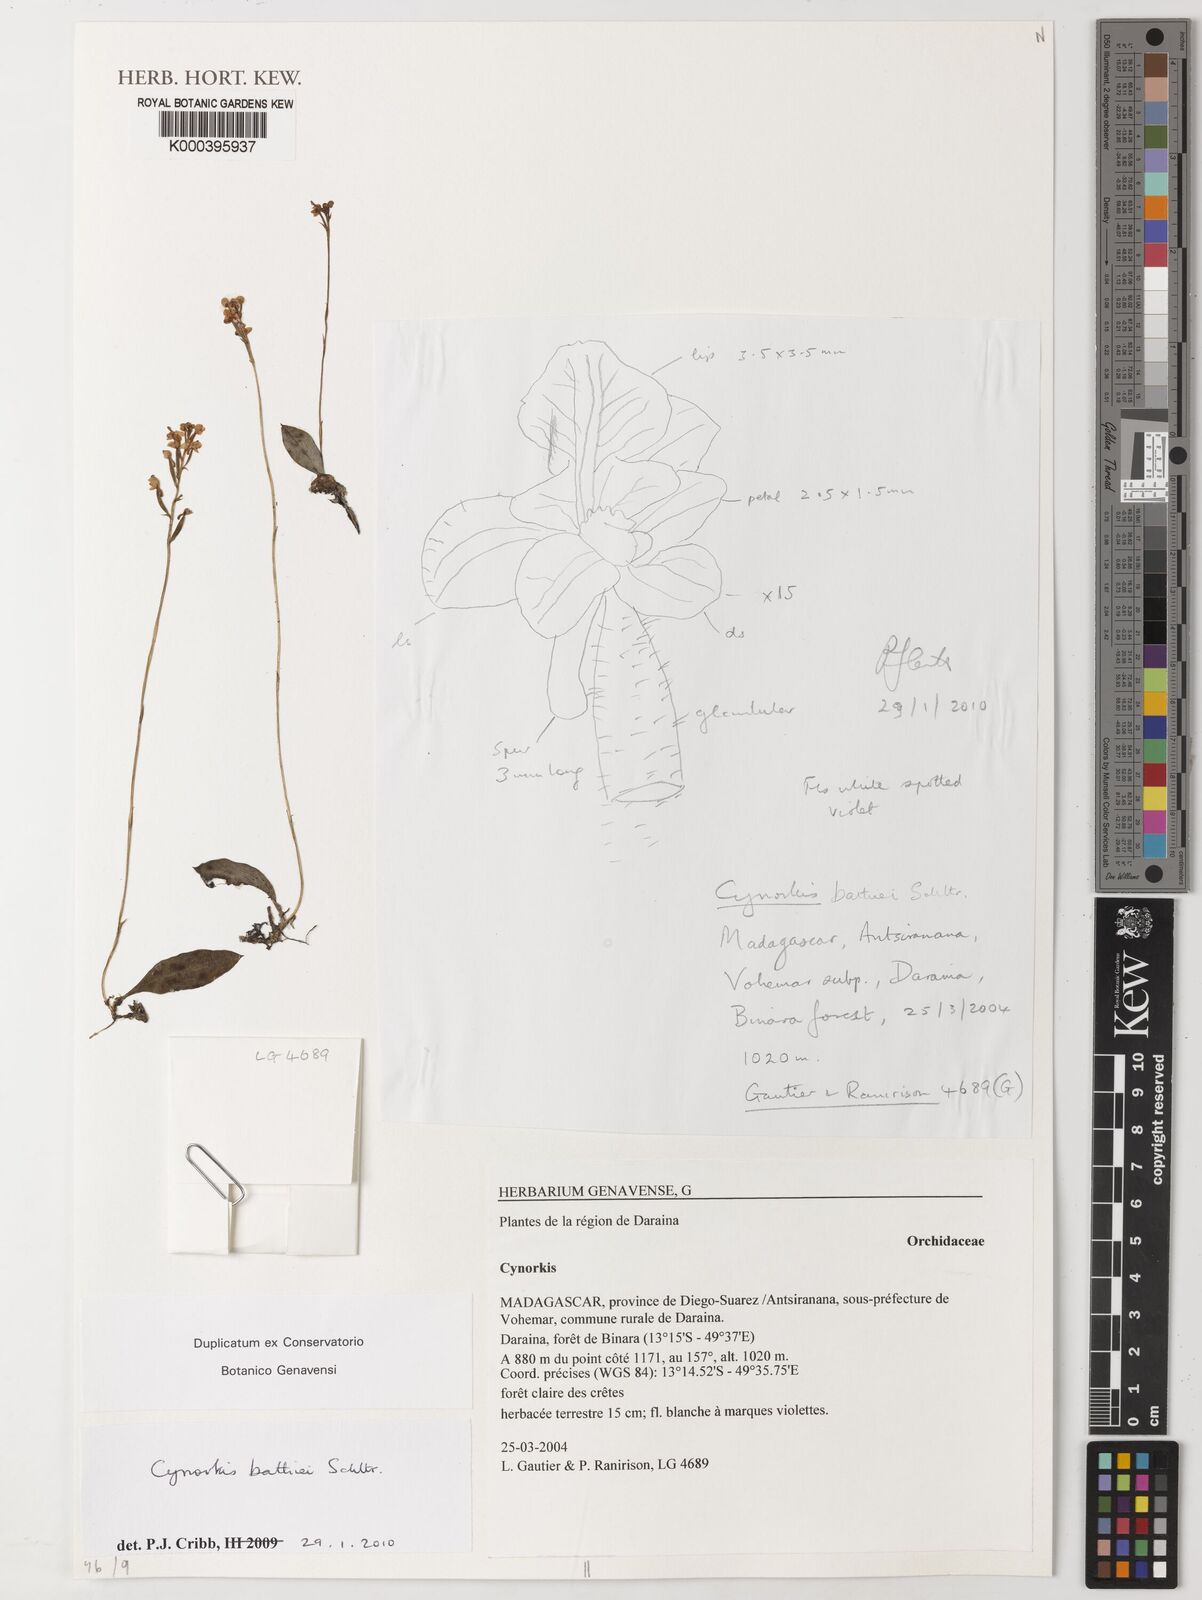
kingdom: Plantae
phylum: Tracheophyta
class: Liliopsida
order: Asparagales
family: Orchidaceae
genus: Cynorkis
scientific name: Cynorkis bathiei
